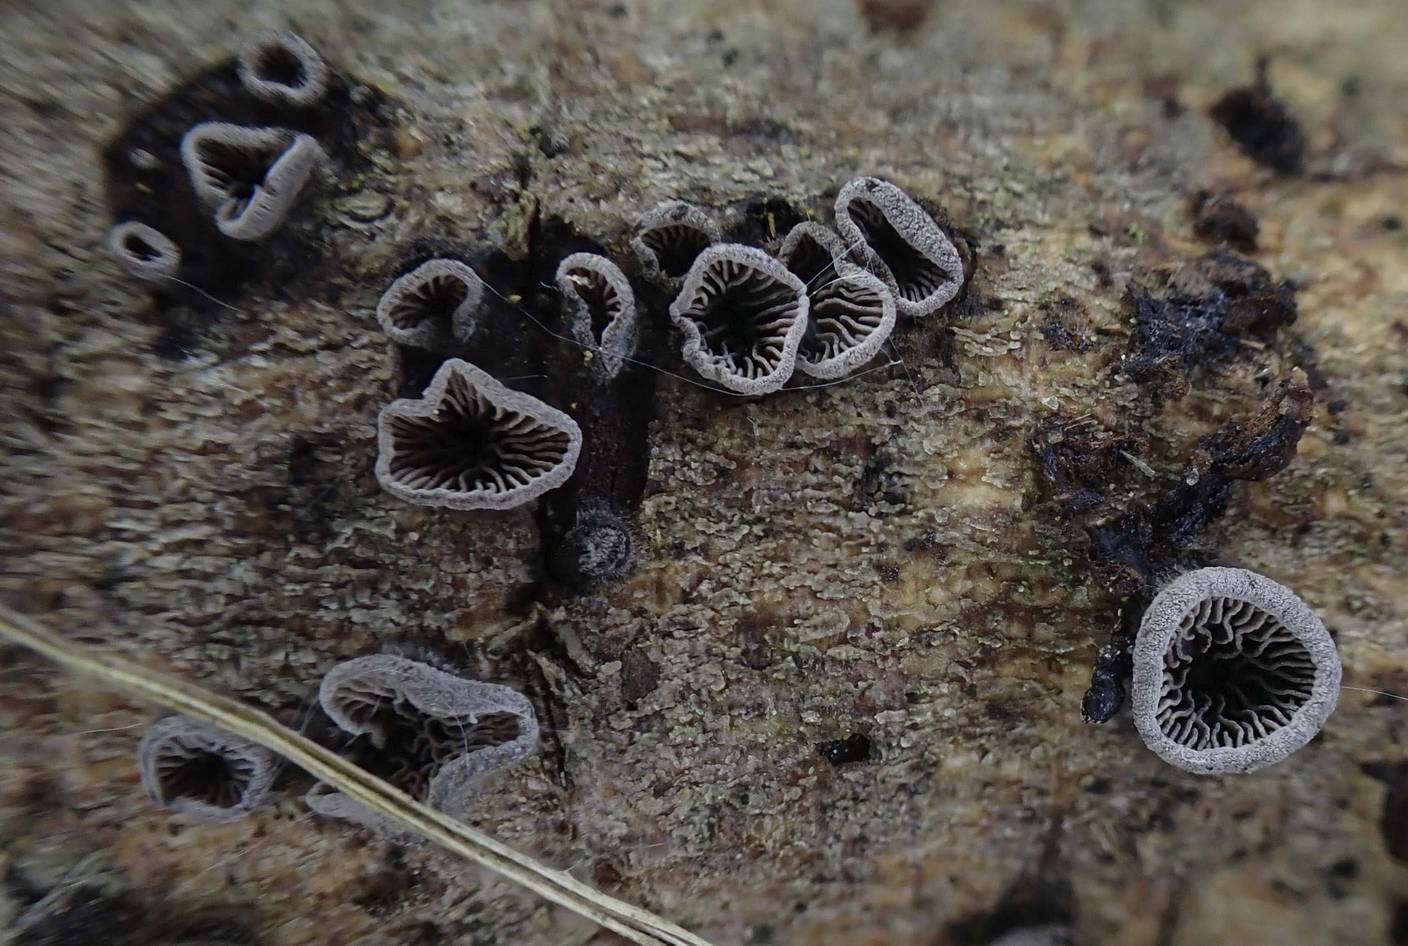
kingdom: Fungi
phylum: Basidiomycota
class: Agaricomycetes
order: Agaricales
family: Pleurotaceae
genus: Resupinatus
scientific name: Resupinatus trichotis
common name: mørkfiltet barkhat
